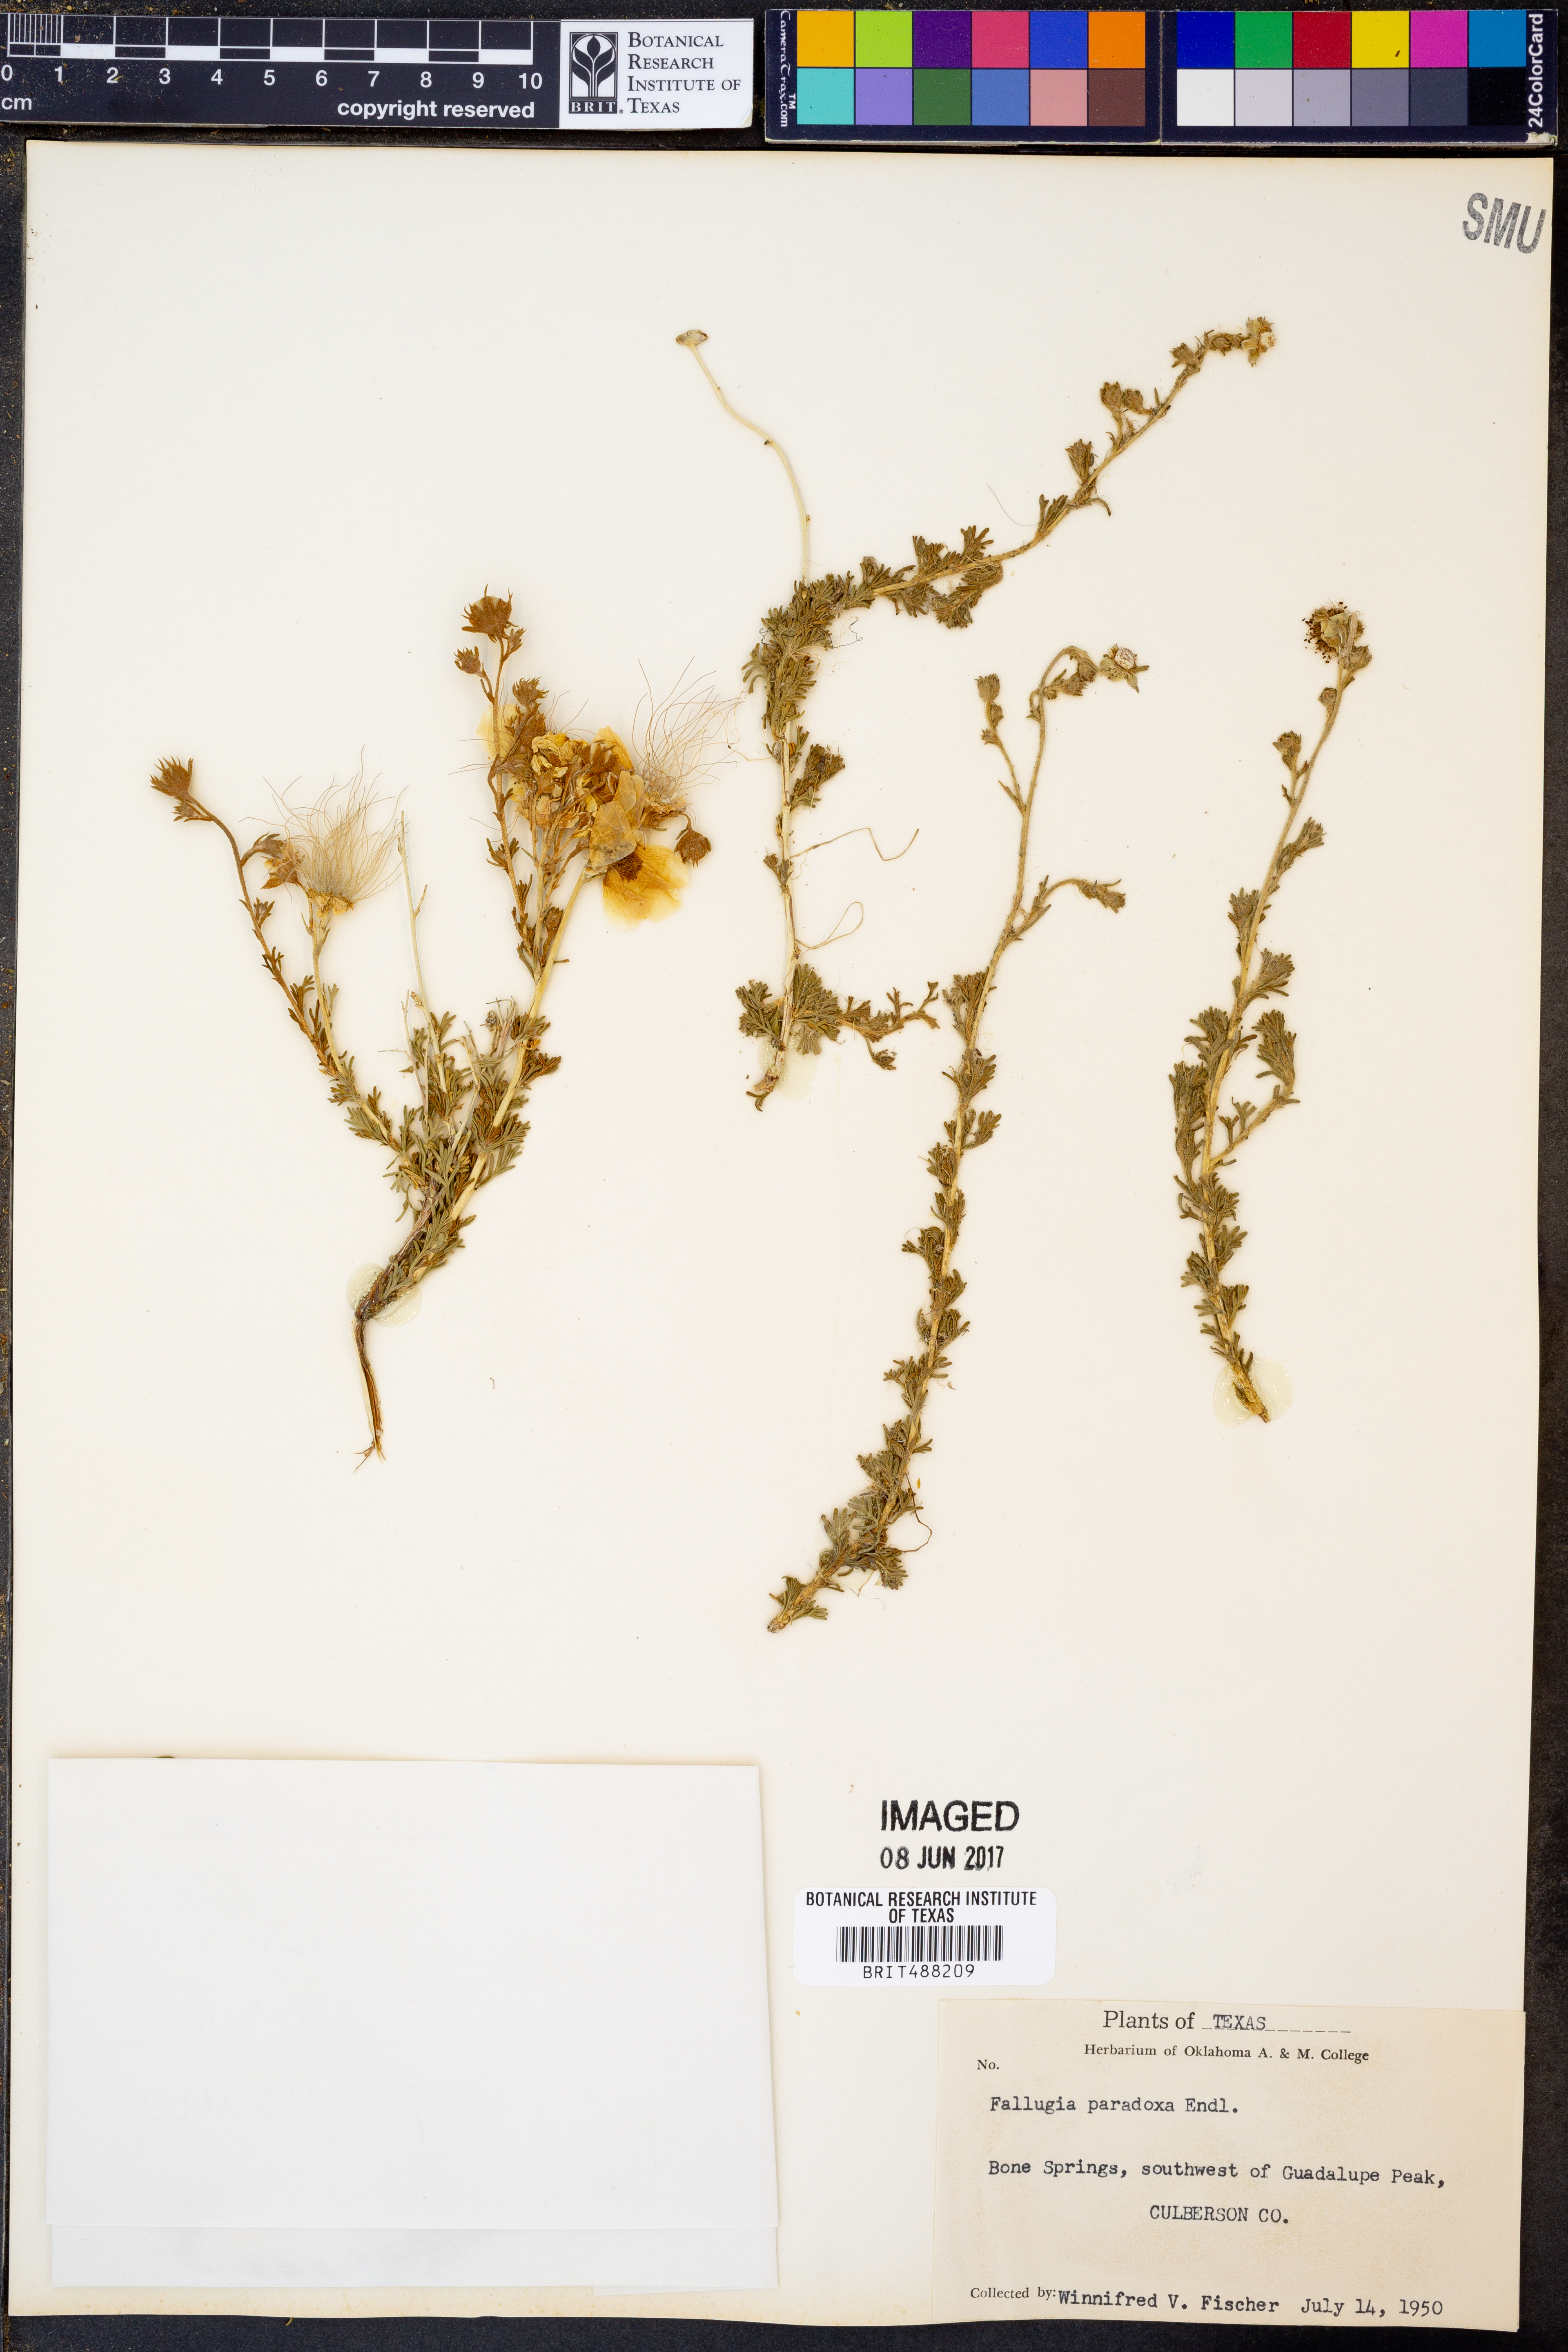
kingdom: Plantae
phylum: Tracheophyta
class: Magnoliopsida
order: Rosales
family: Rosaceae
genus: Fallugia
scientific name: Fallugia paradoxa
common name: Apache-plume
